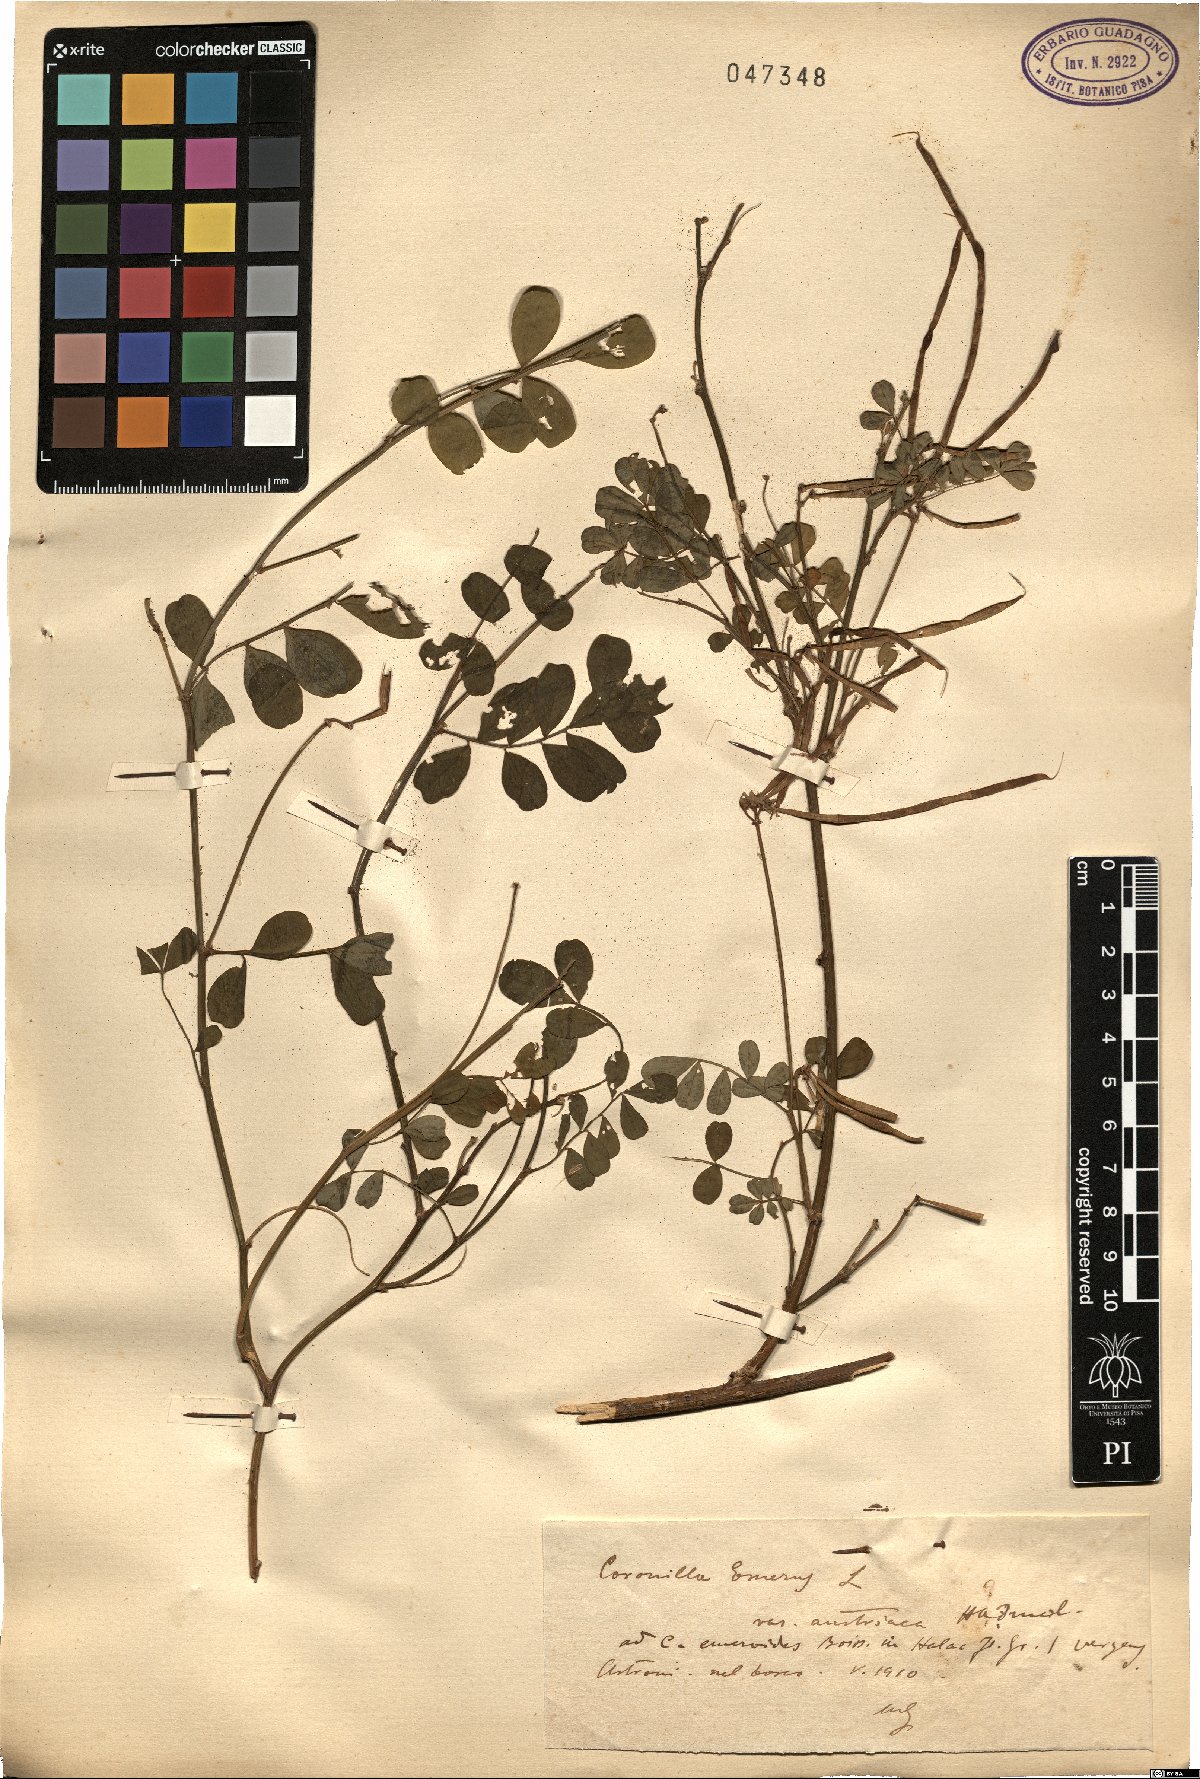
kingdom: Plantae
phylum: Tracheophyta
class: Magnoliopsida
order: Fabales
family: Fabaceae
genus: Hippocrepis
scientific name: Hippocrepis emerus
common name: Scorpion senna
